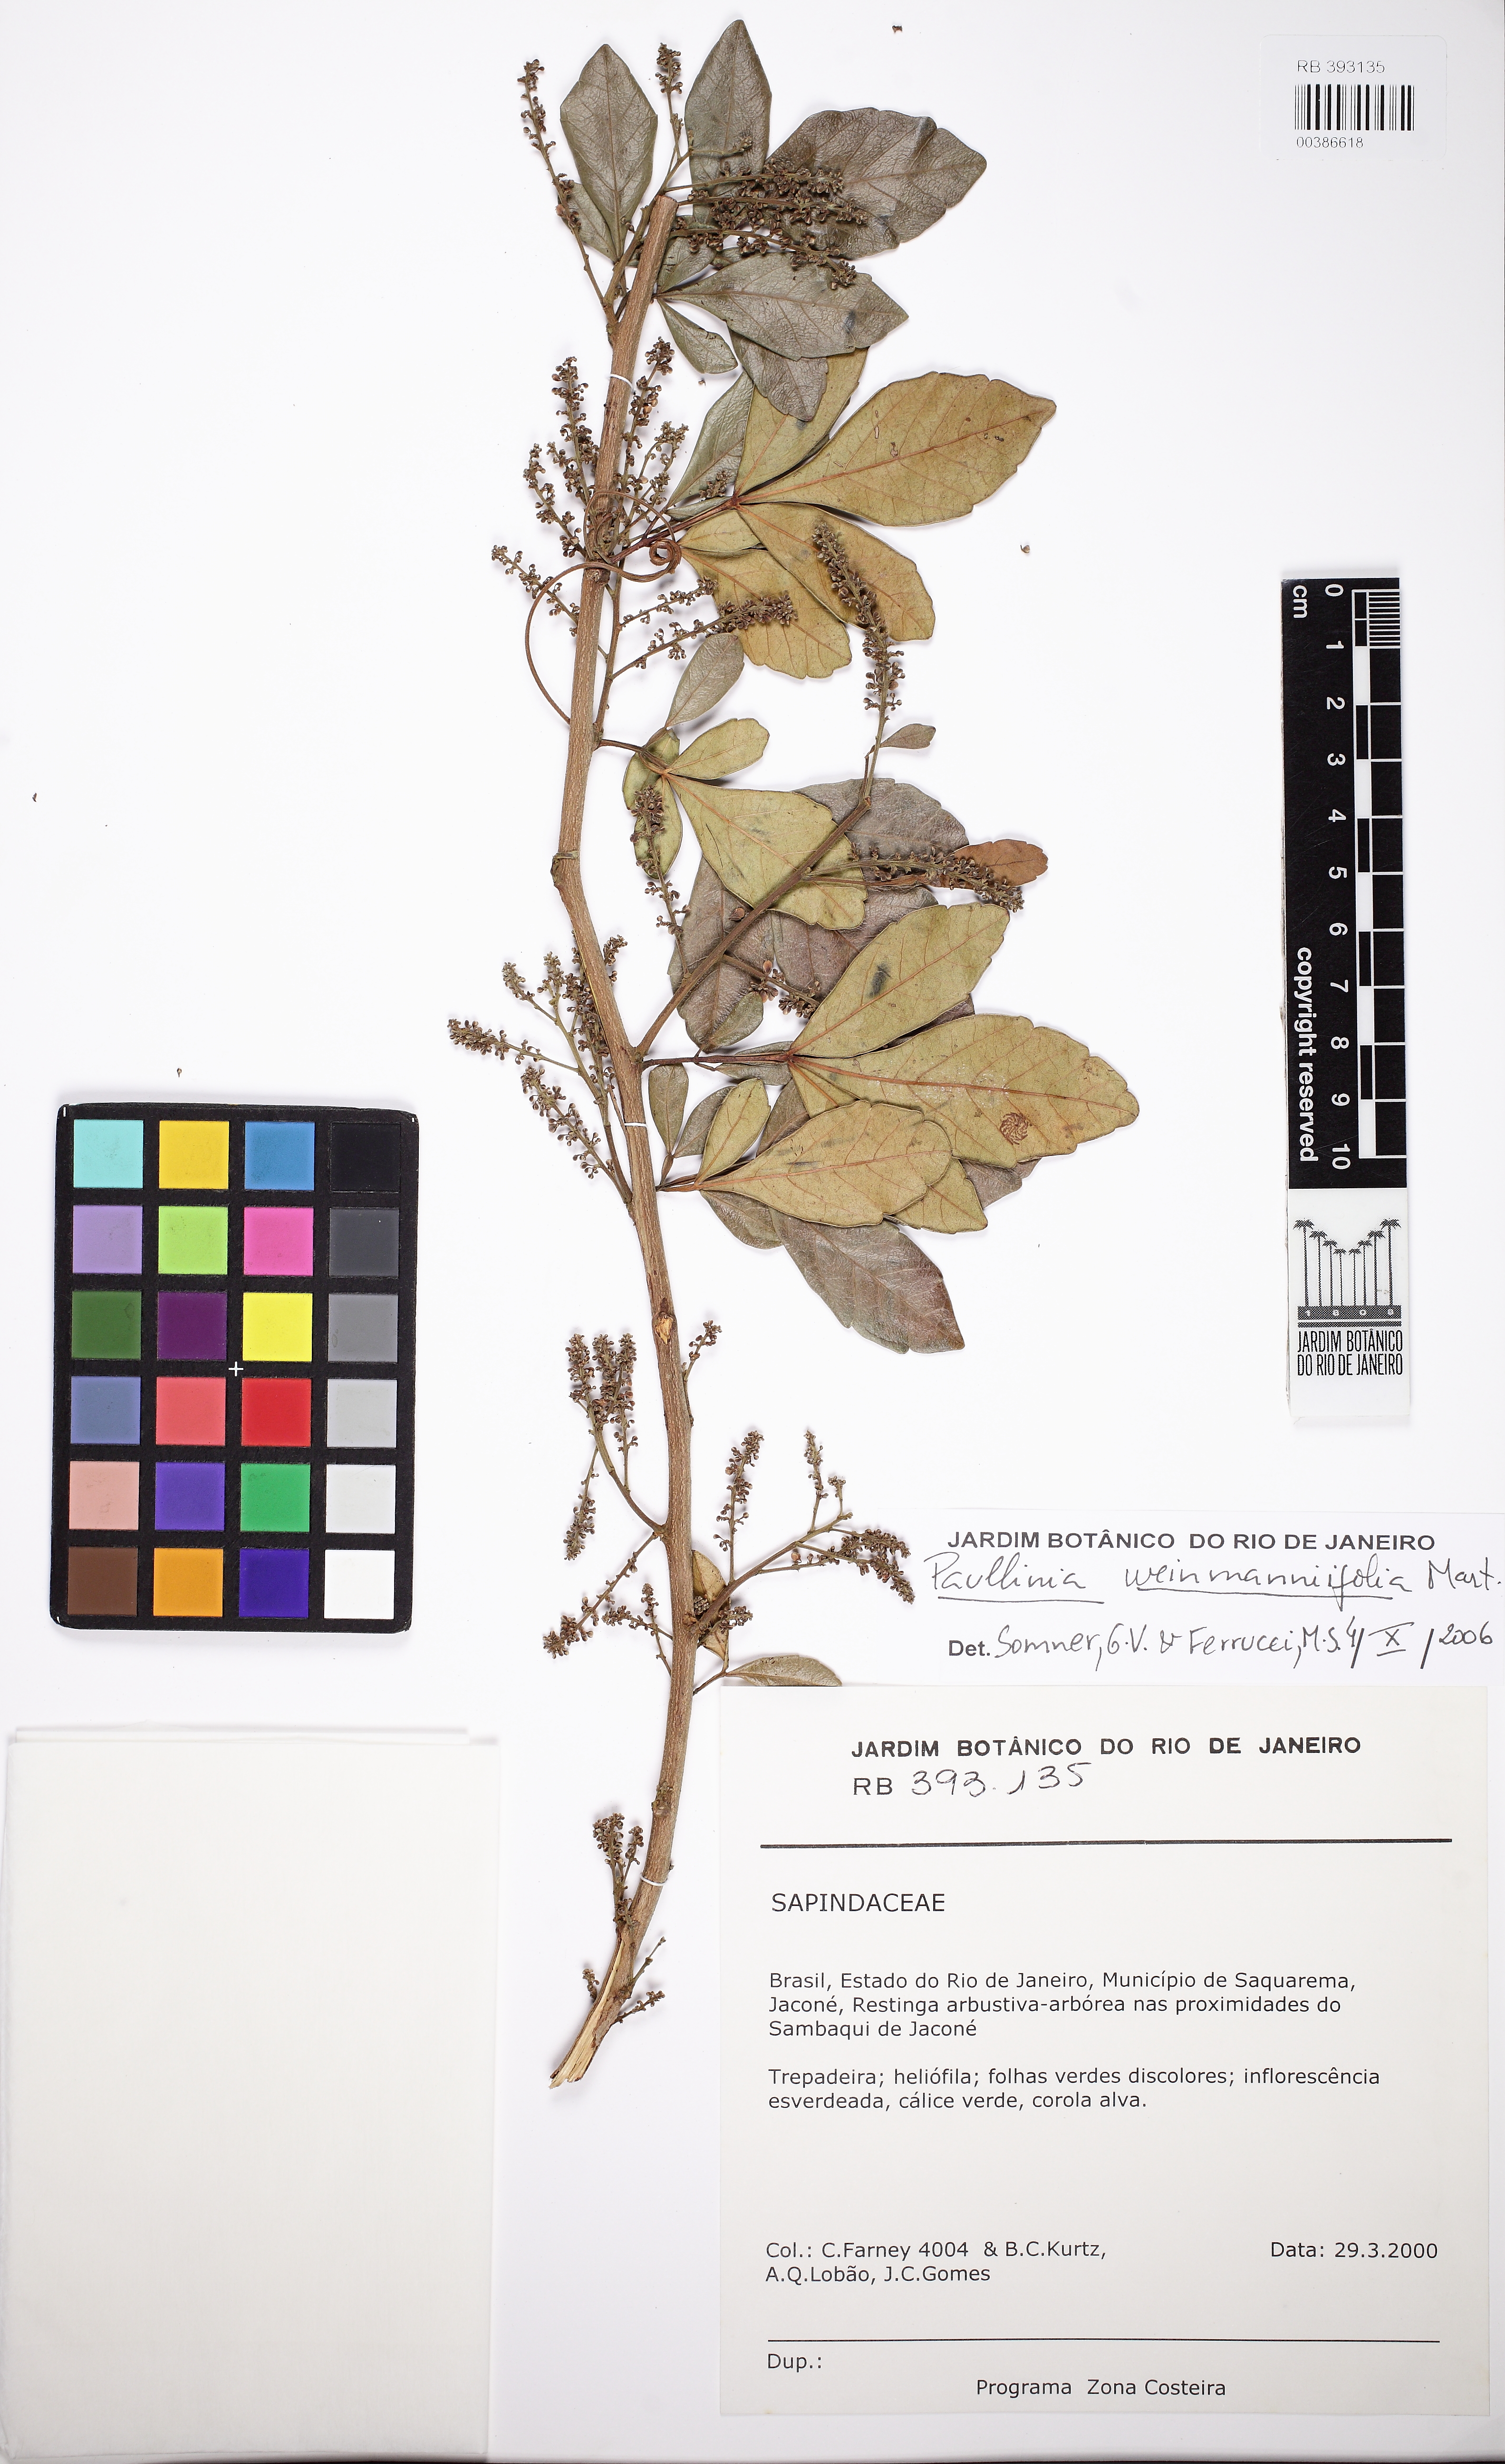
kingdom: Plantae
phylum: Tracheophyta
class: Magnoliopsida
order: Sapindales
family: Sapindaceae
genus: Paullinia
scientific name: Paullinia weinmanniifolia
